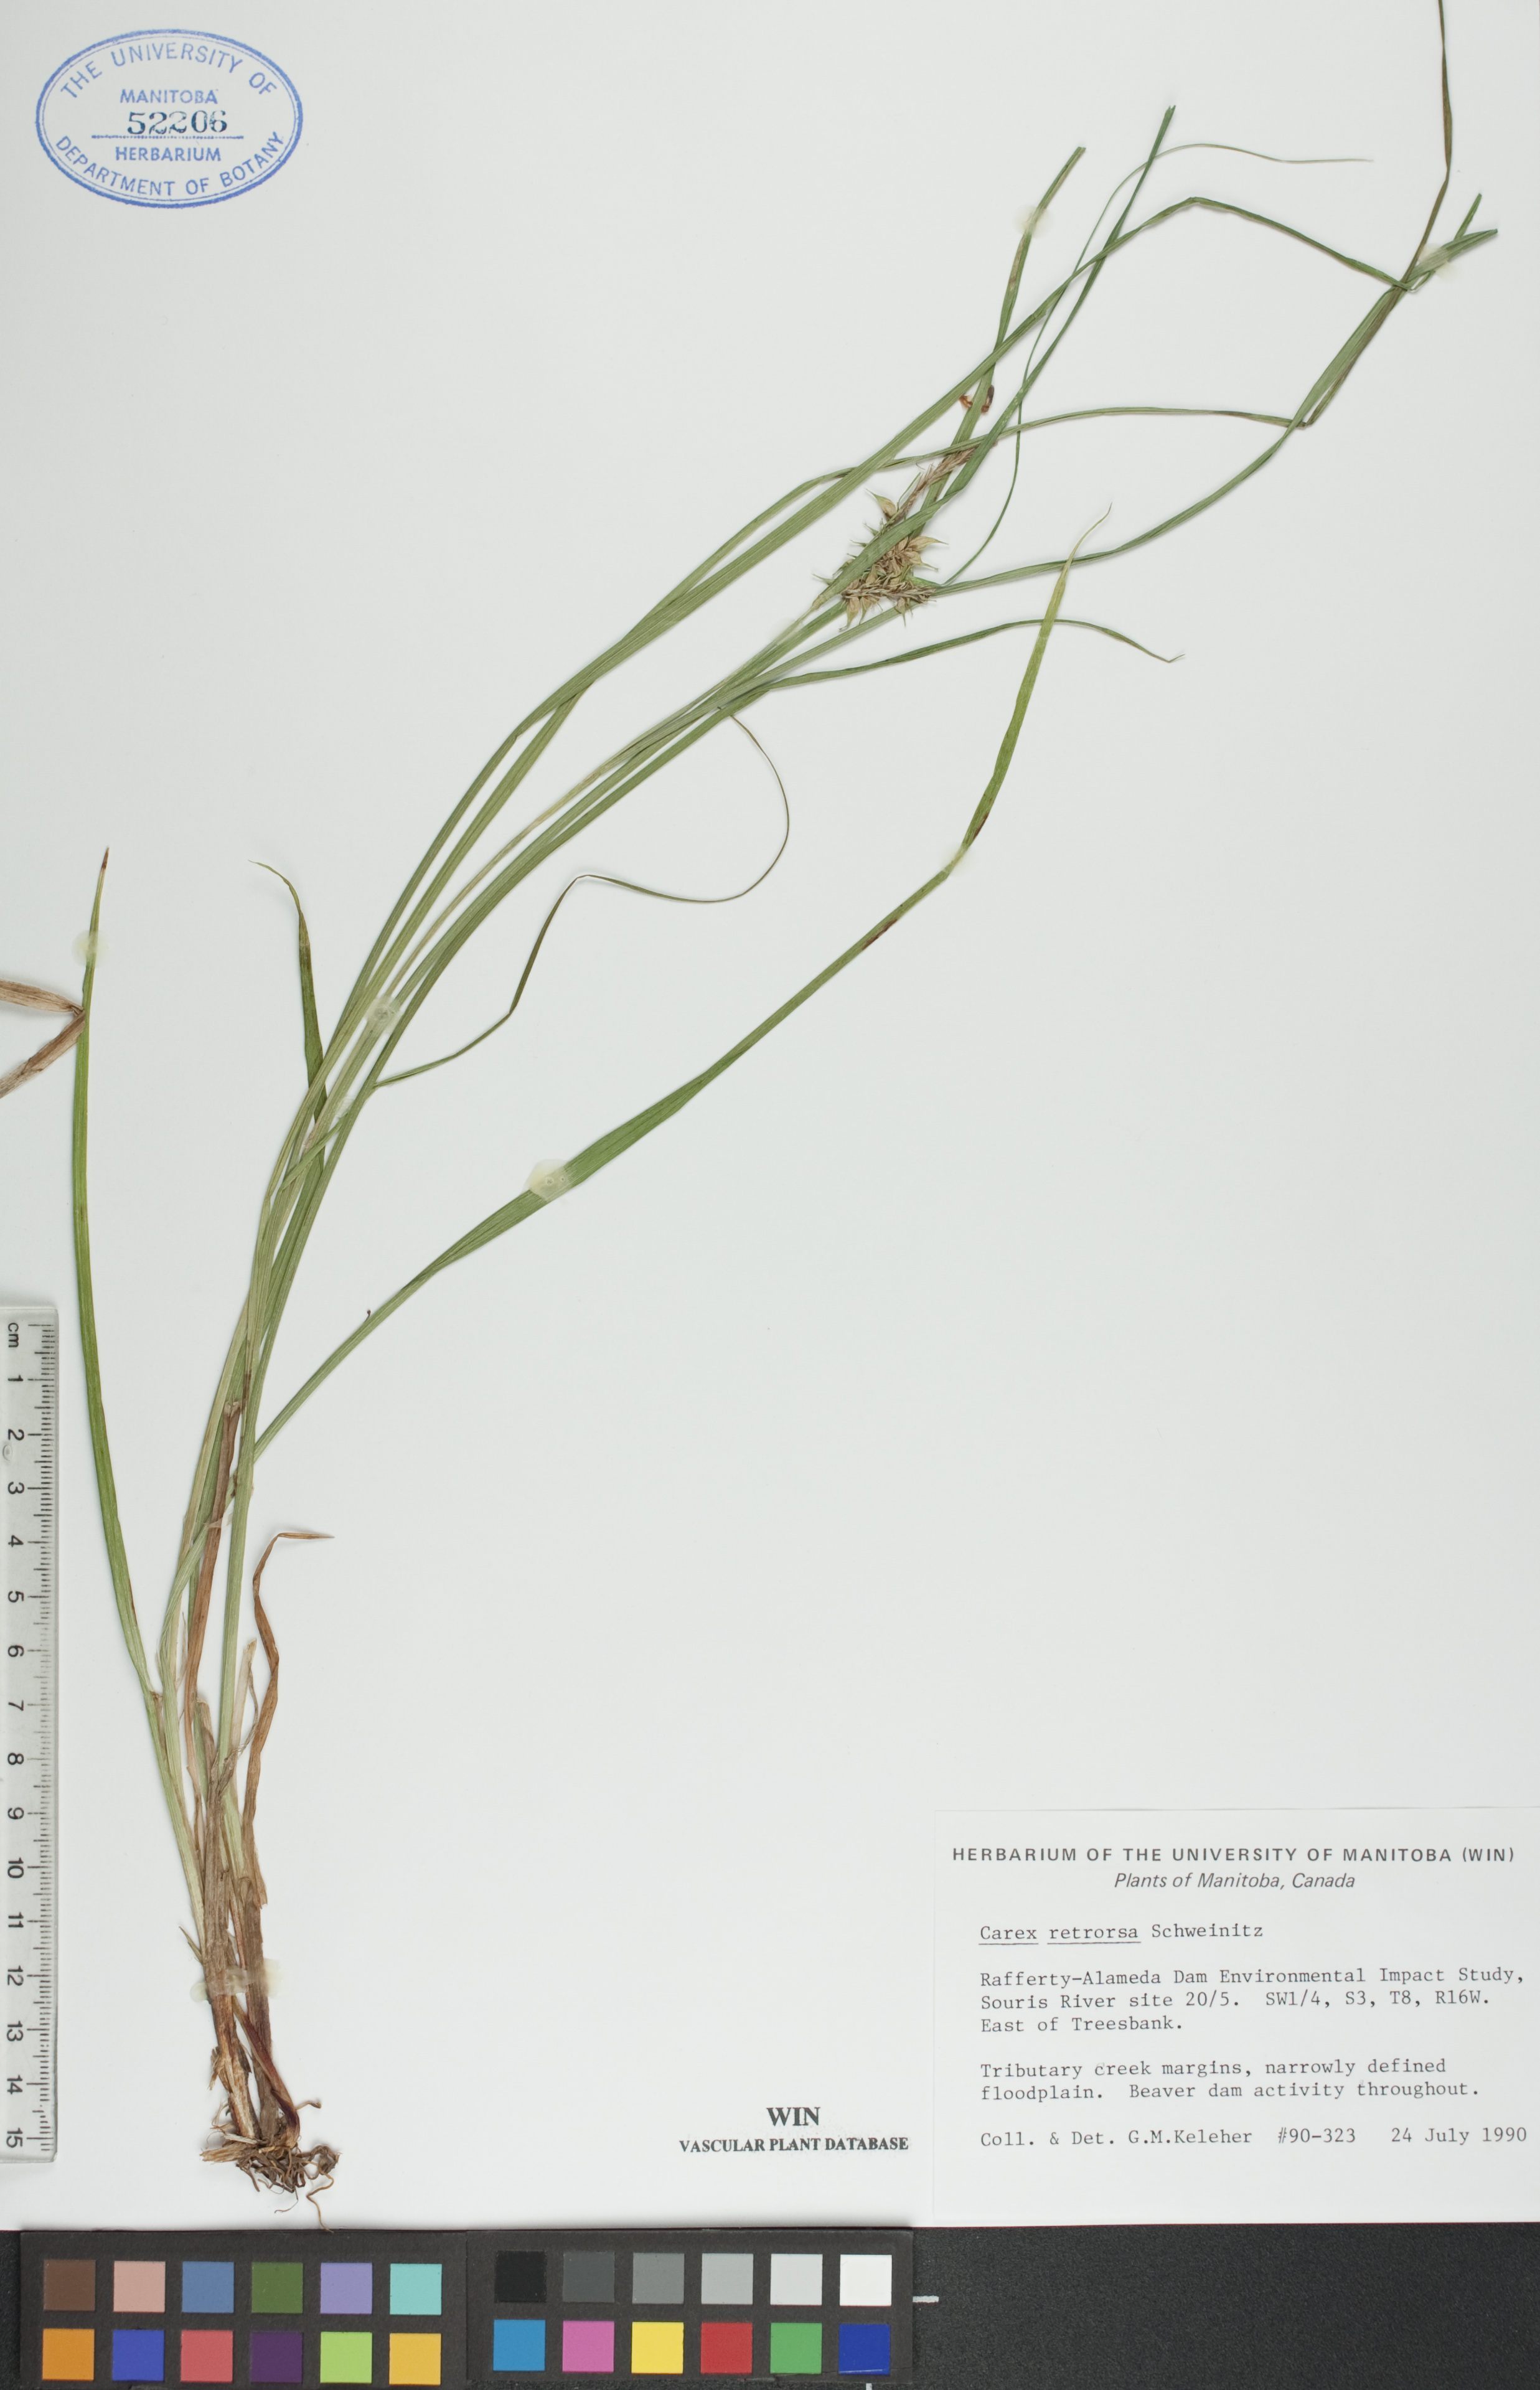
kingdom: Plantae
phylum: Tracheophyta
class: Liliopsida
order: Poales
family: Cyperaceae
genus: Carex
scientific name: Carex retrorsa
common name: Knot-sheath sedge
